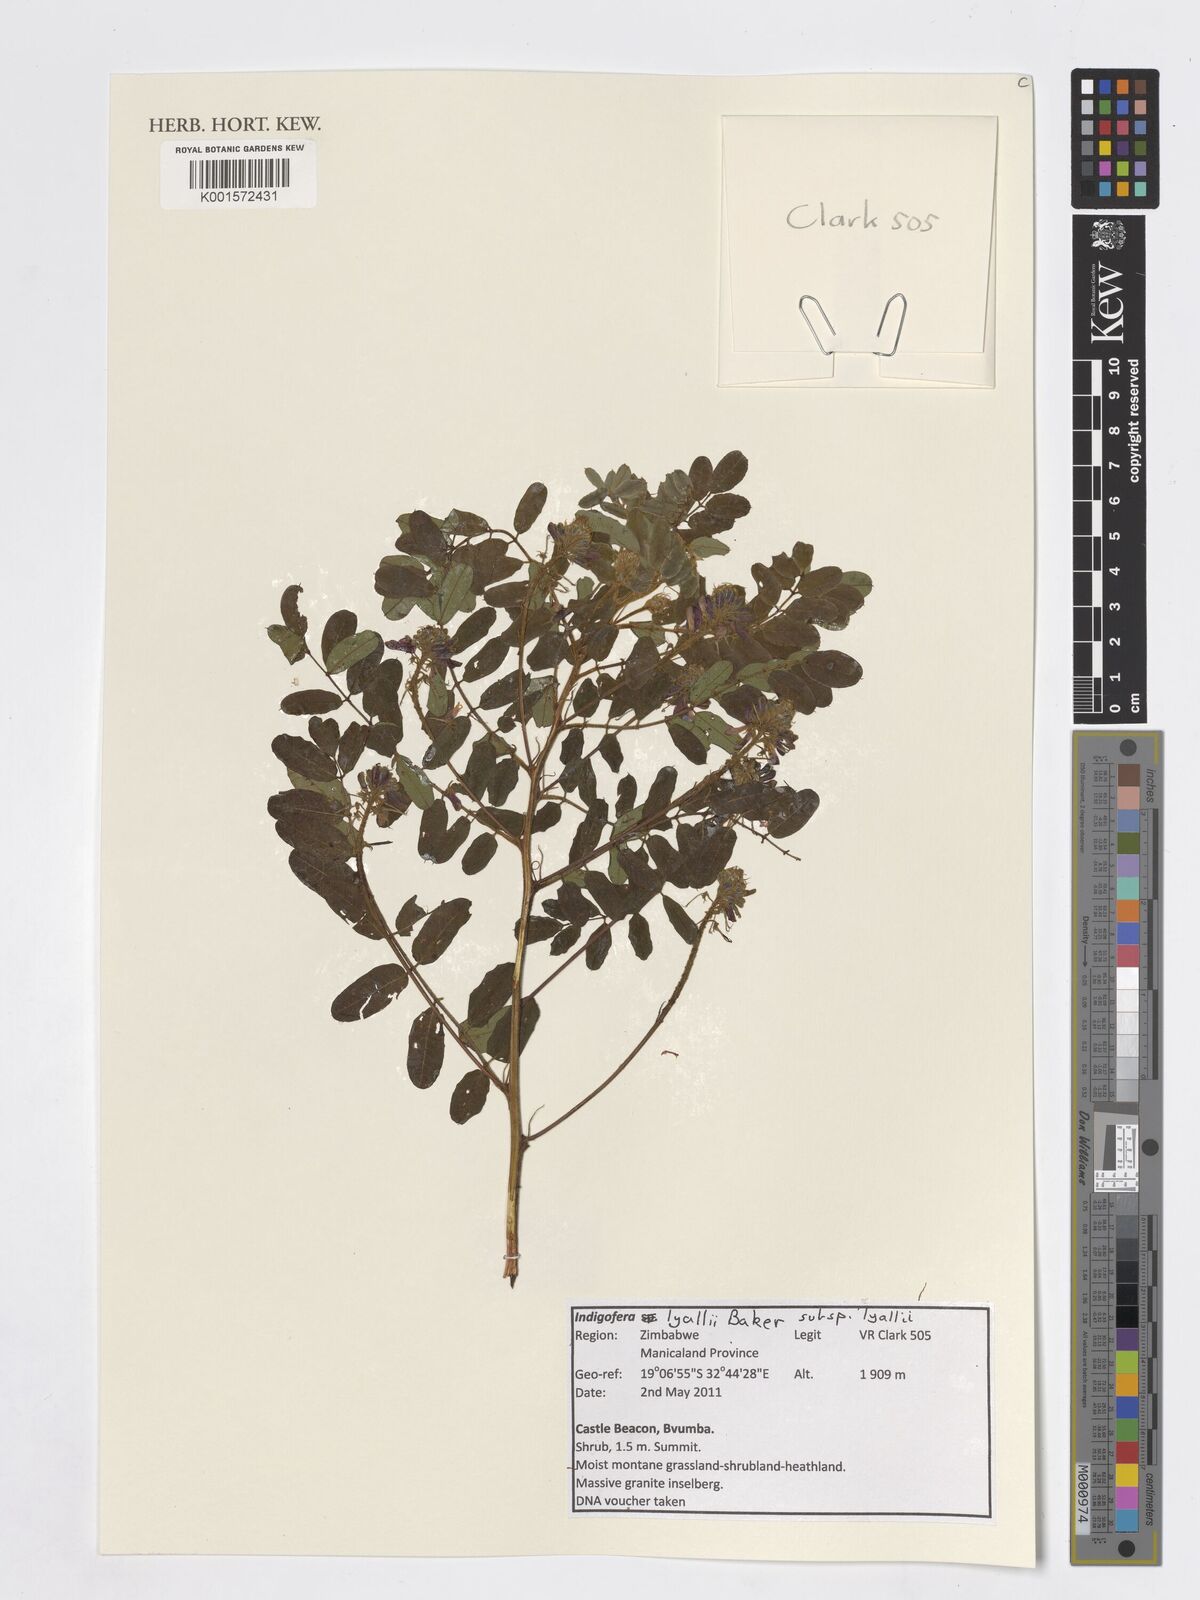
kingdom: Plantae
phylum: Tracheophyta
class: Magnoliopsida
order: Fabales
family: Fabaceae
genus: Indigofera
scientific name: Indigofera lyallii
